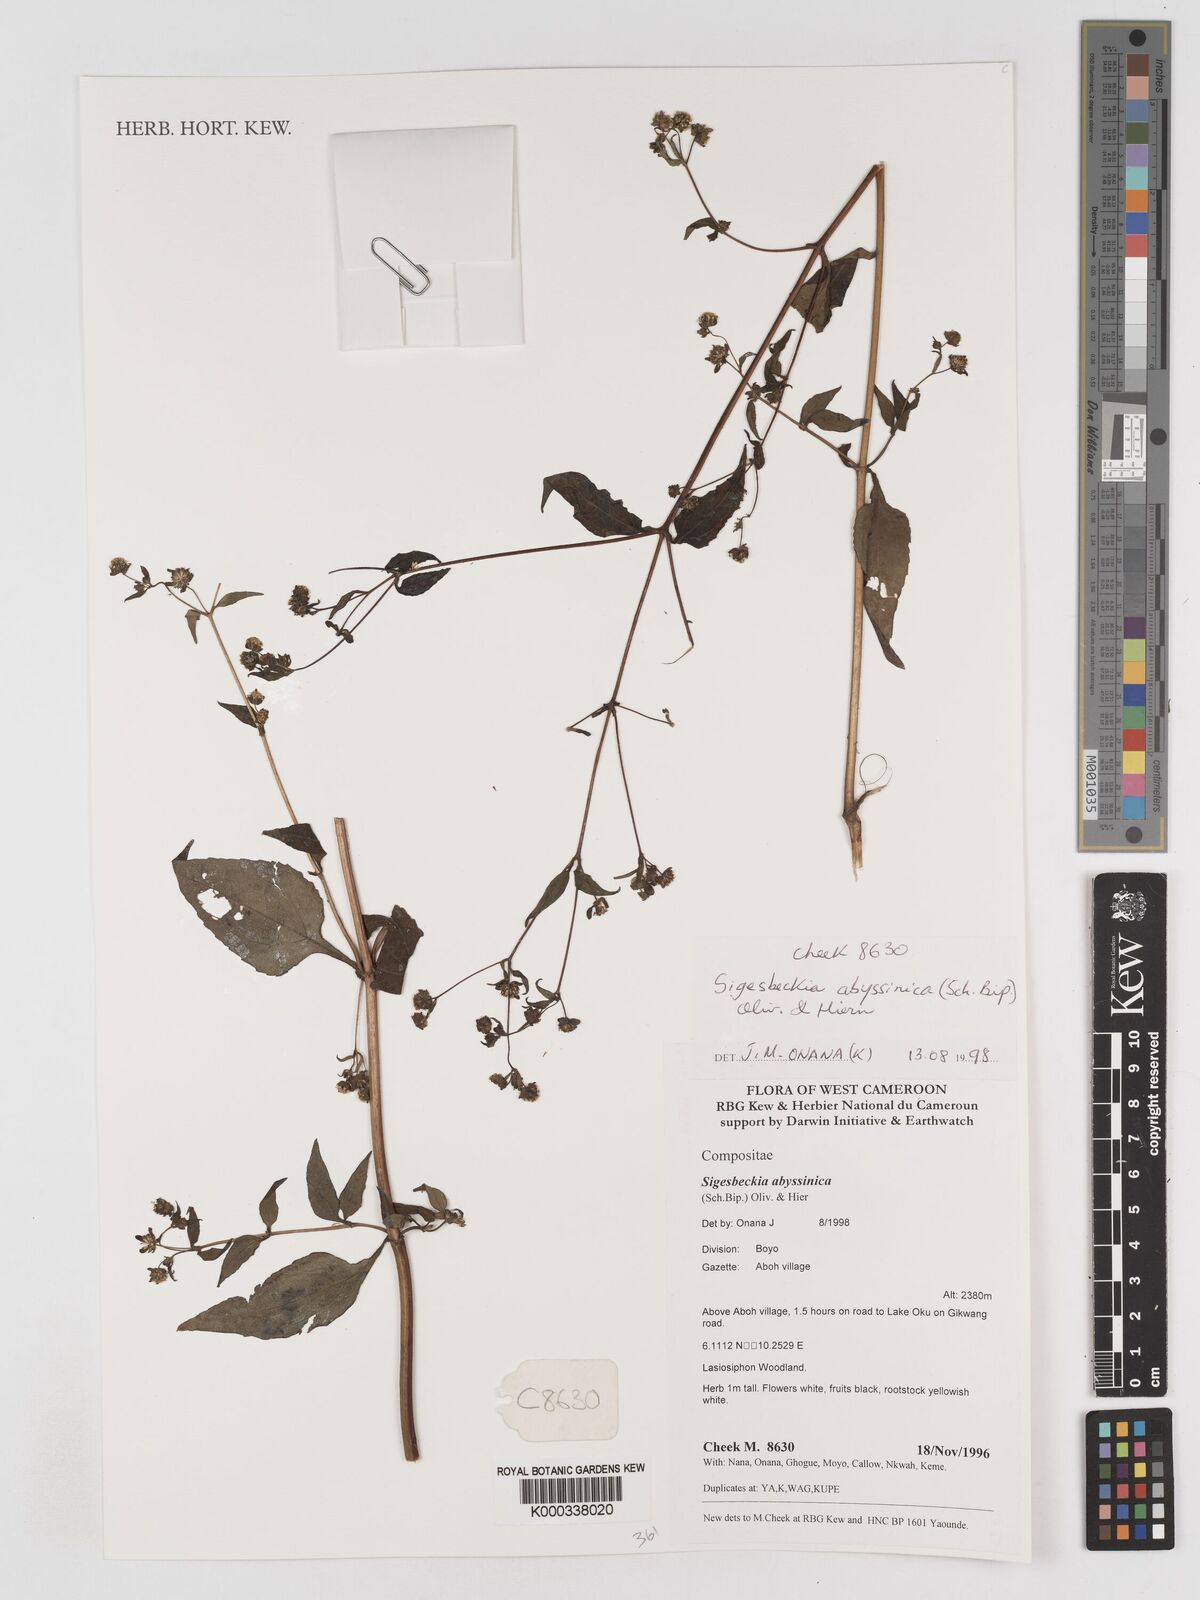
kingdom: Plantae
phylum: Tracheophyta
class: Magnoliopsida
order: Asterales
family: Asteraceae
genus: Micractis
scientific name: Micractis bojeri
